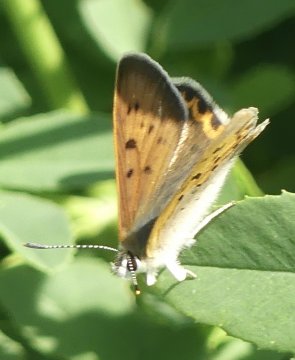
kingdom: Animalia
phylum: Arthropoda
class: Insecta
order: Lepidoptera
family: Sesiidae
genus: Sesia
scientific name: Sesia Lycaena helloides
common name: Purplish Copper
